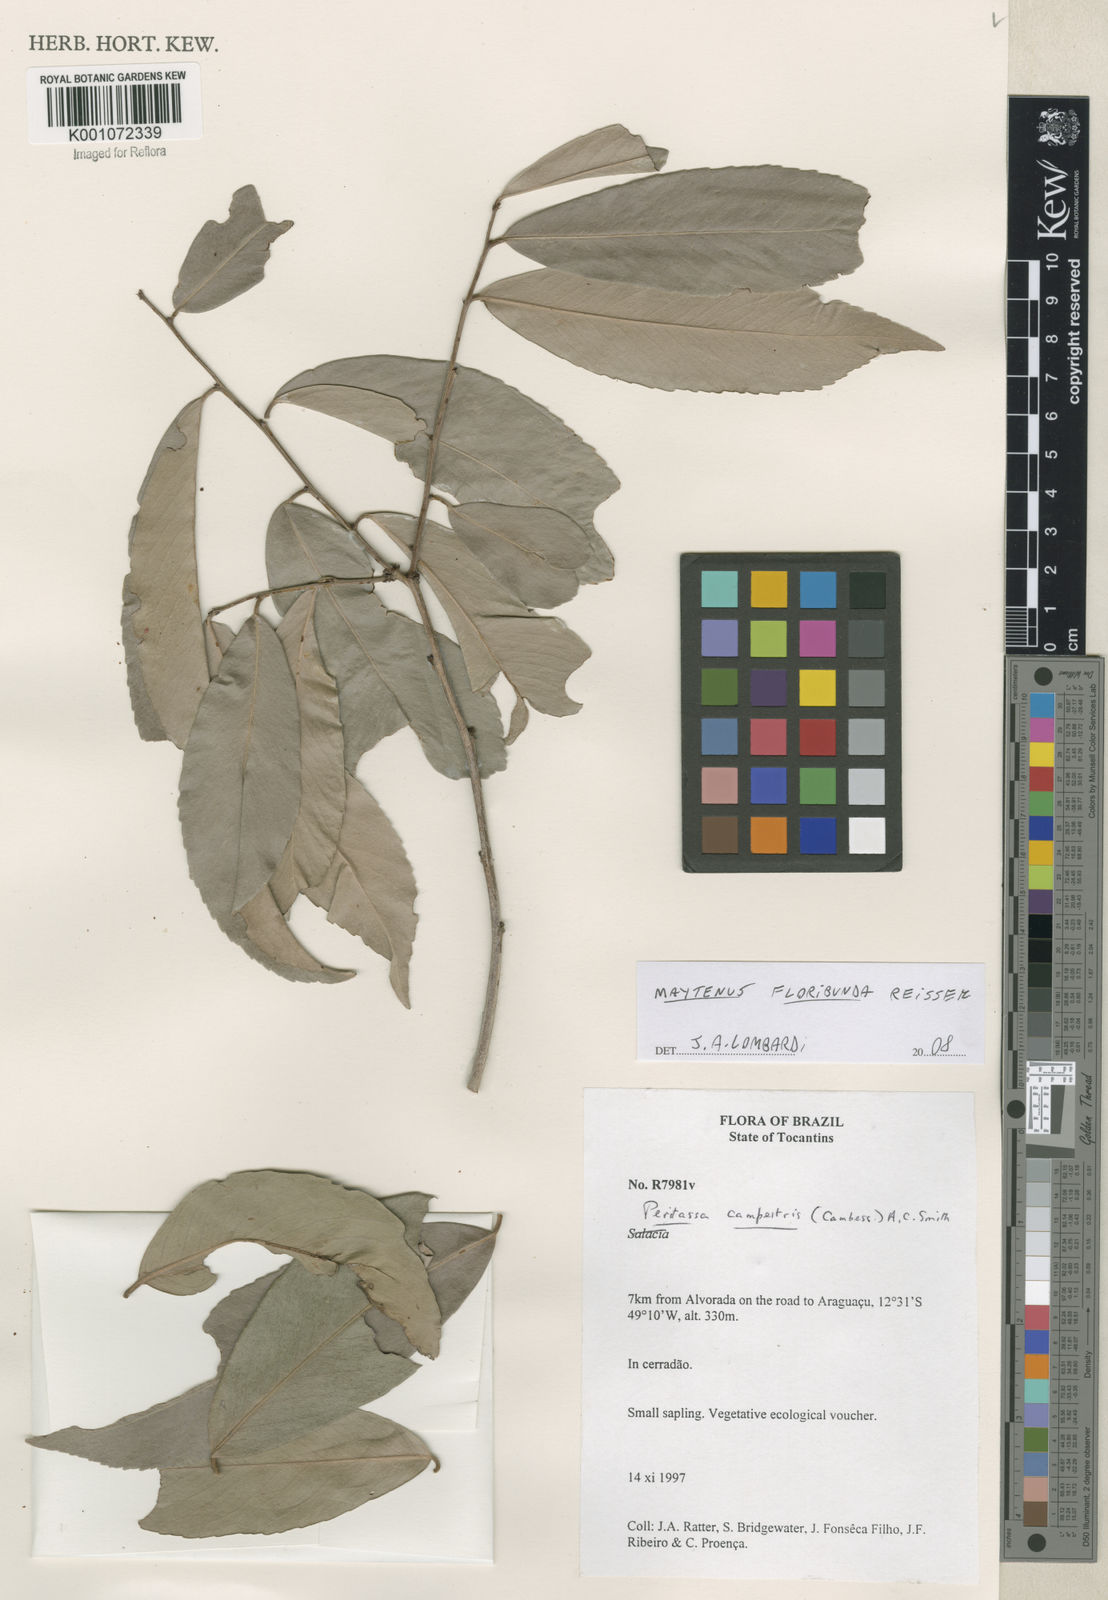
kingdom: Plantae
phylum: Tracheophyta
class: Magnoliopsida
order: Celastrales
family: Celastraceae
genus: Monteverdia
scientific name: Monteverdia floribunda
